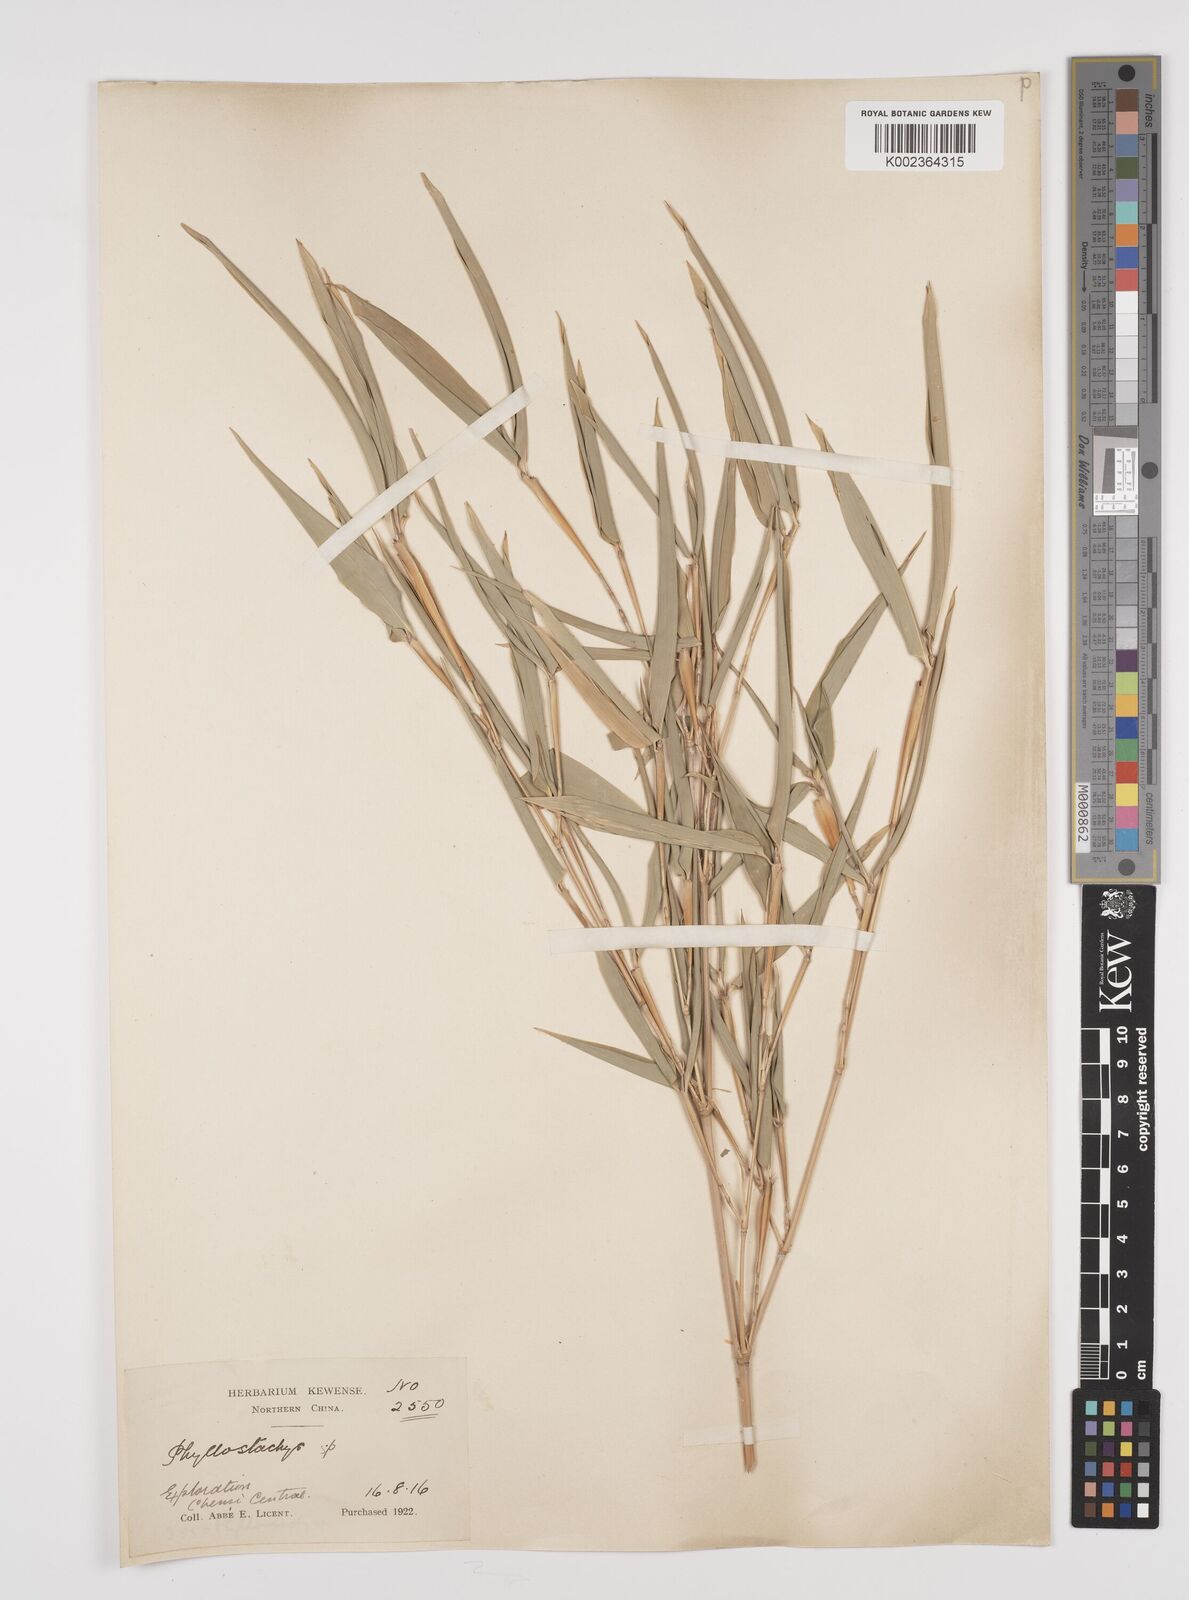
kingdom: Plantae
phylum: Tracheophyta
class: Liliopsida
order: Poales
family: Poaceae
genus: Phyllostachys
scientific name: Phyllostachys
